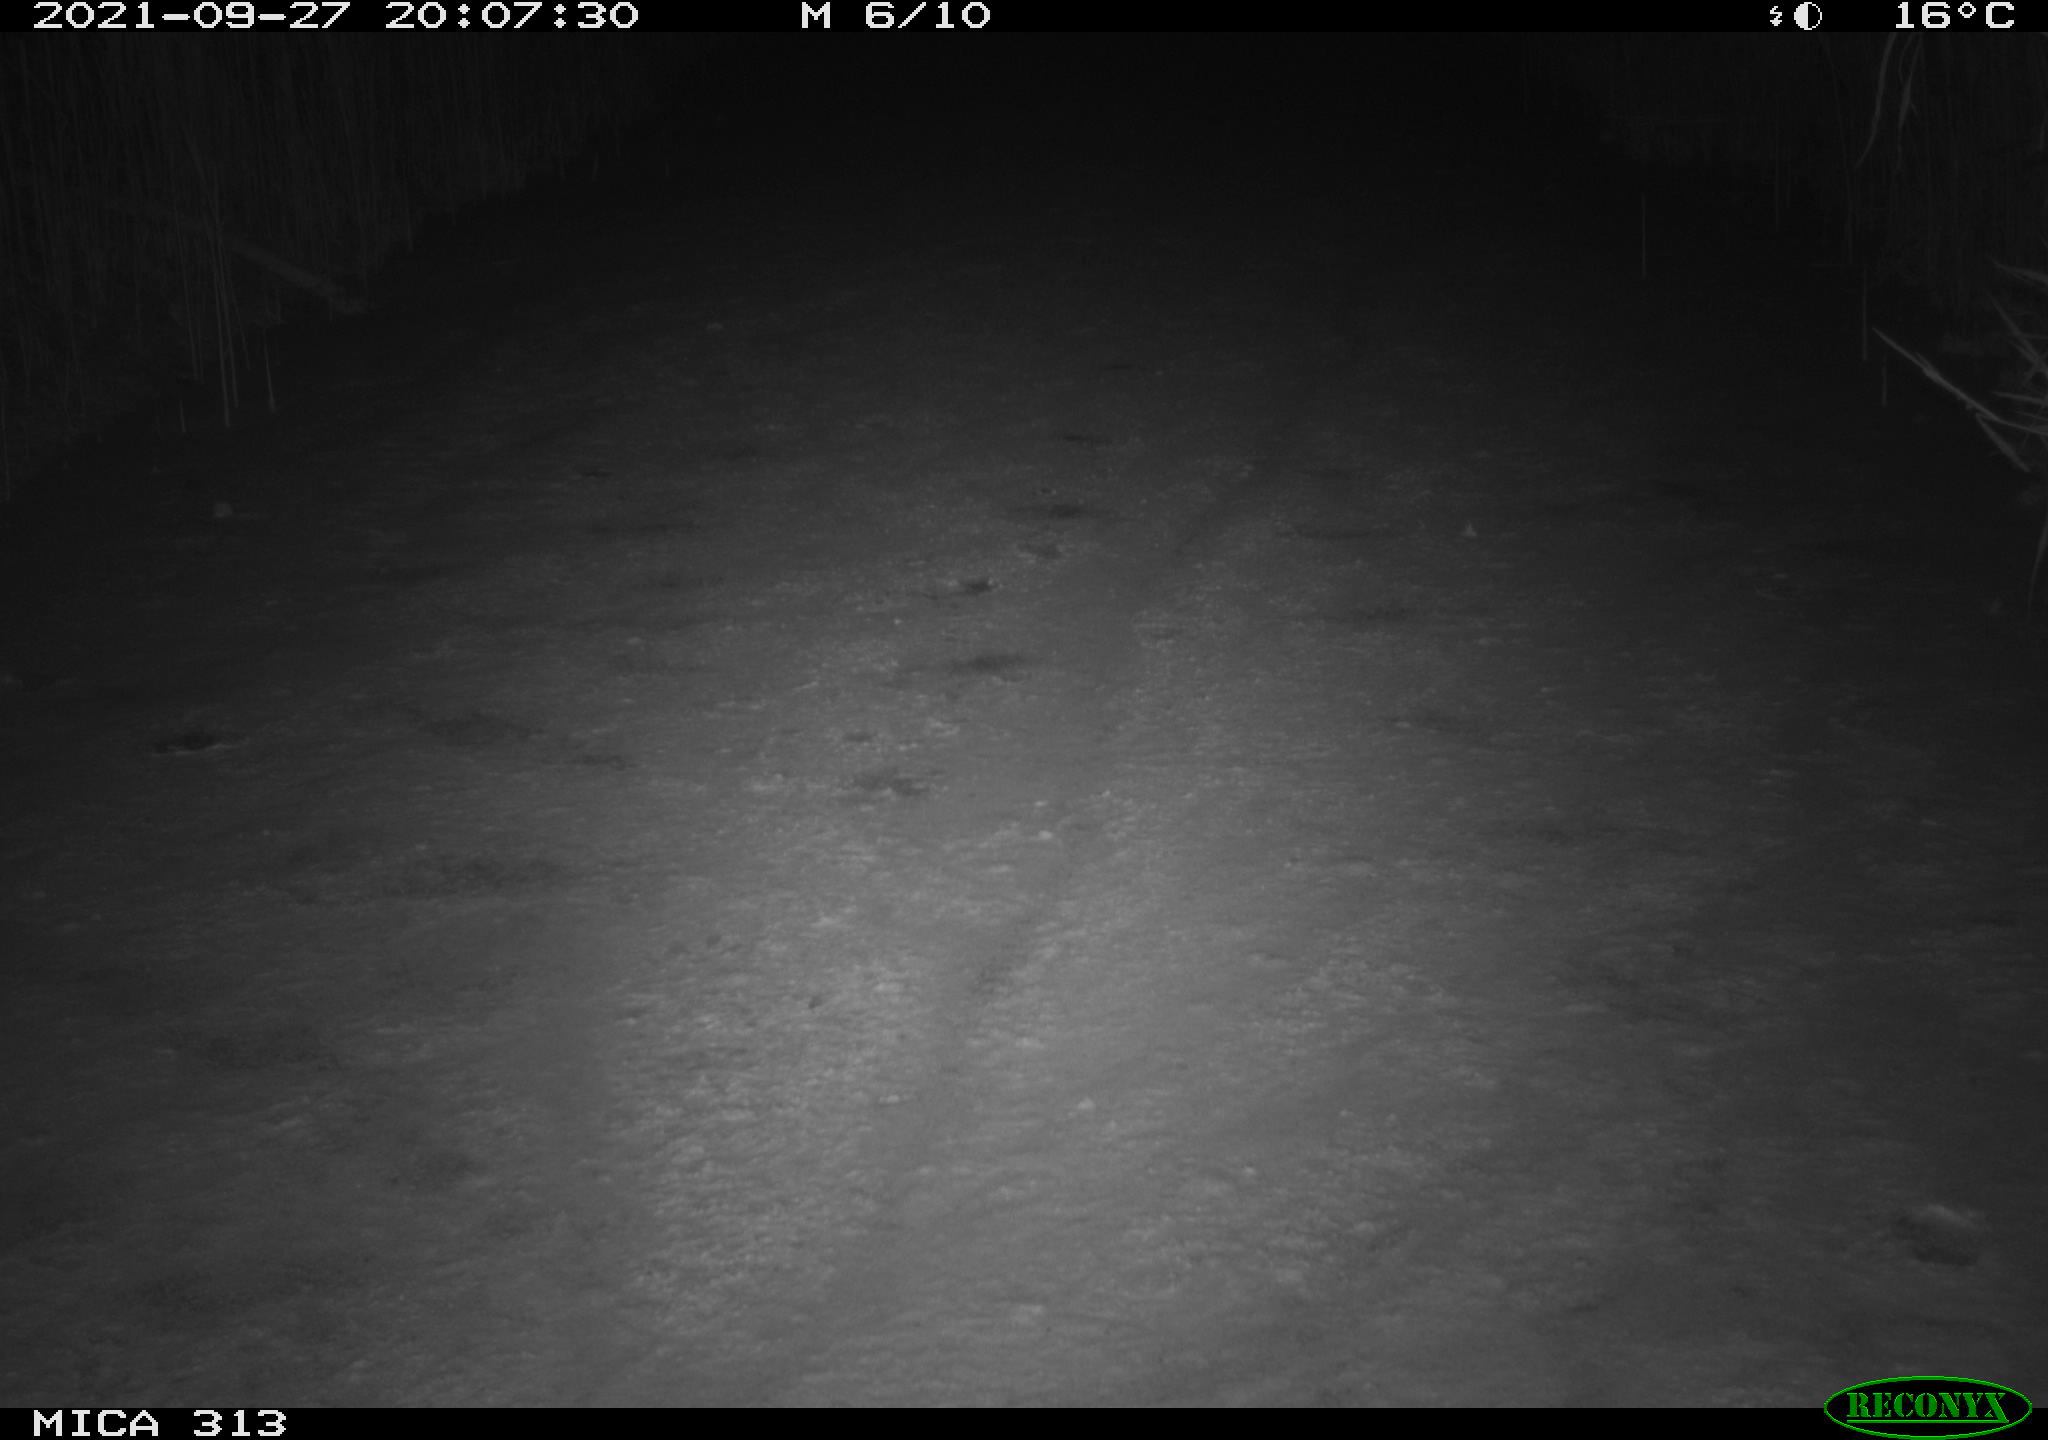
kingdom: Animalia
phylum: Chordata
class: Aves
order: Gruiformes
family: Rallidae
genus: Gallinula
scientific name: Gallinula chloropus
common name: Common moorhen
